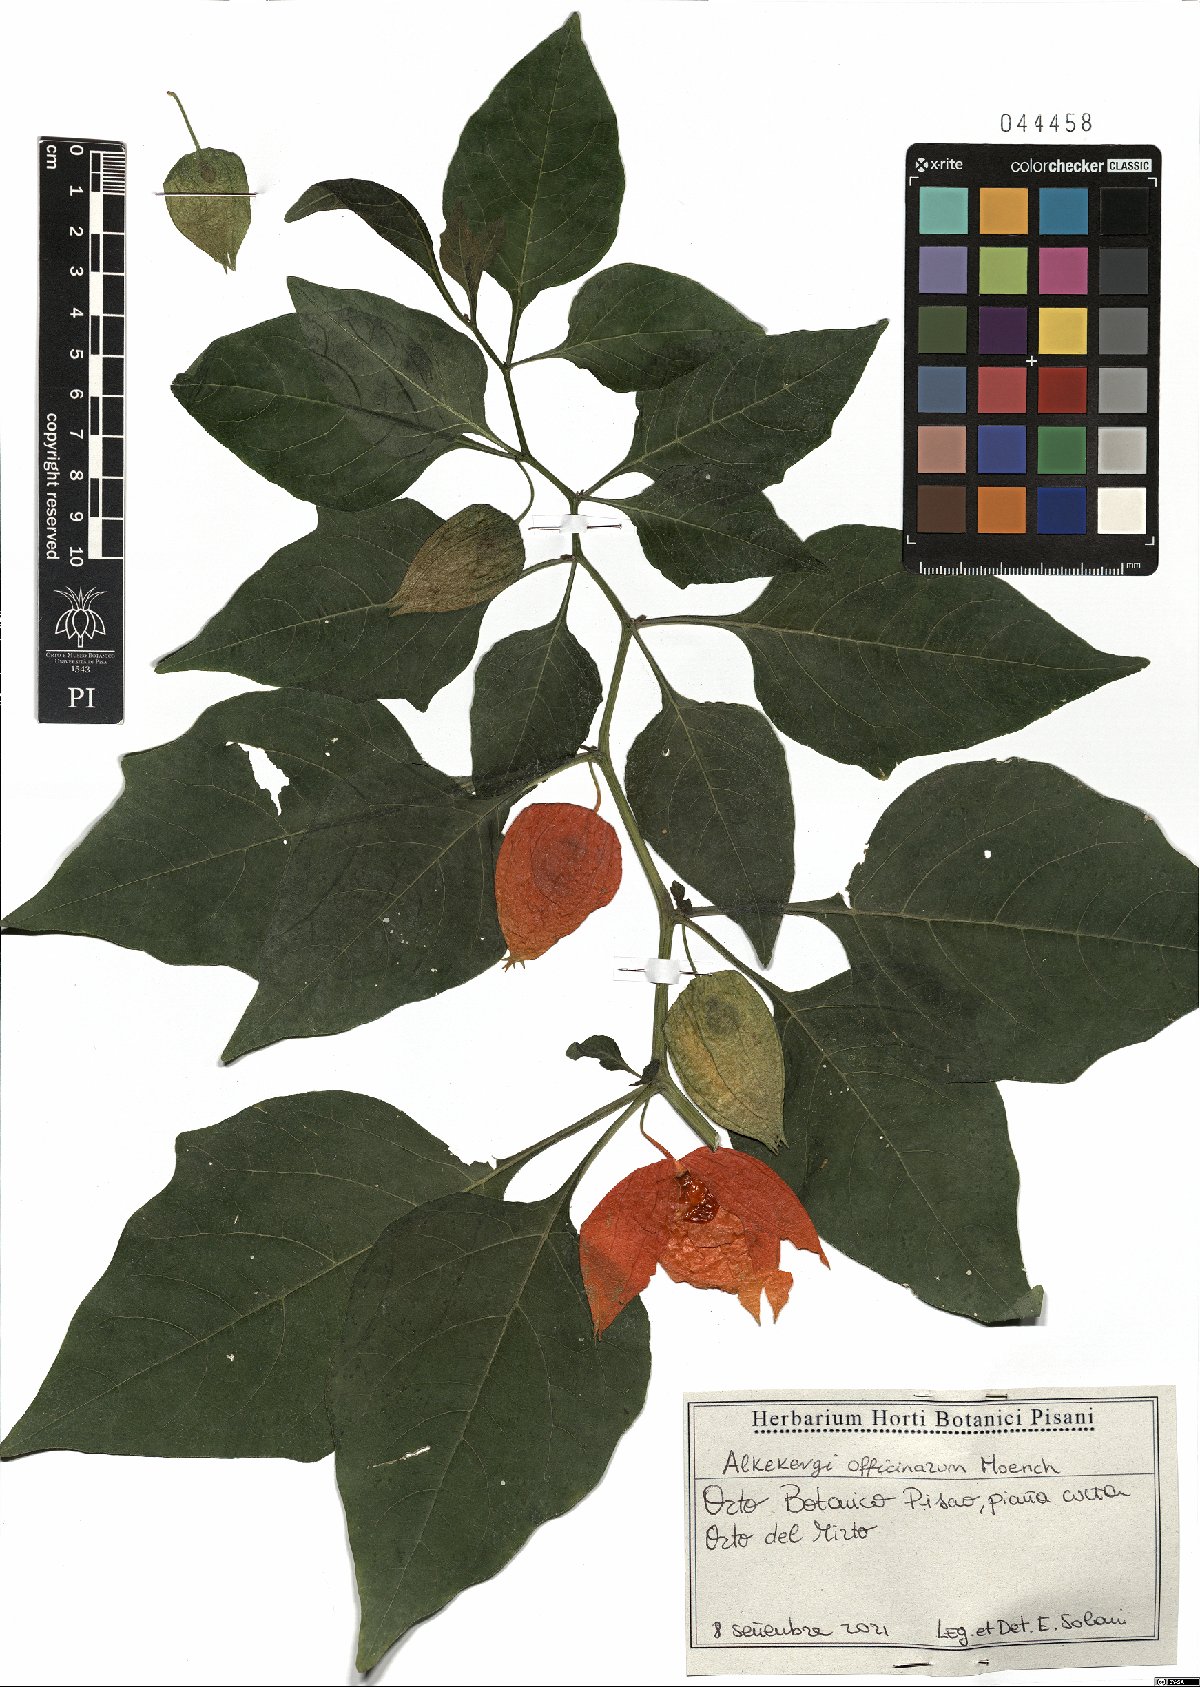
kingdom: Plantae
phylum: Tracheophyta
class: Magnoliopsida
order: Solanales
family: Solanaceae
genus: Alkekengi
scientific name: Alkekengi officinarum
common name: Japanese-lantern
